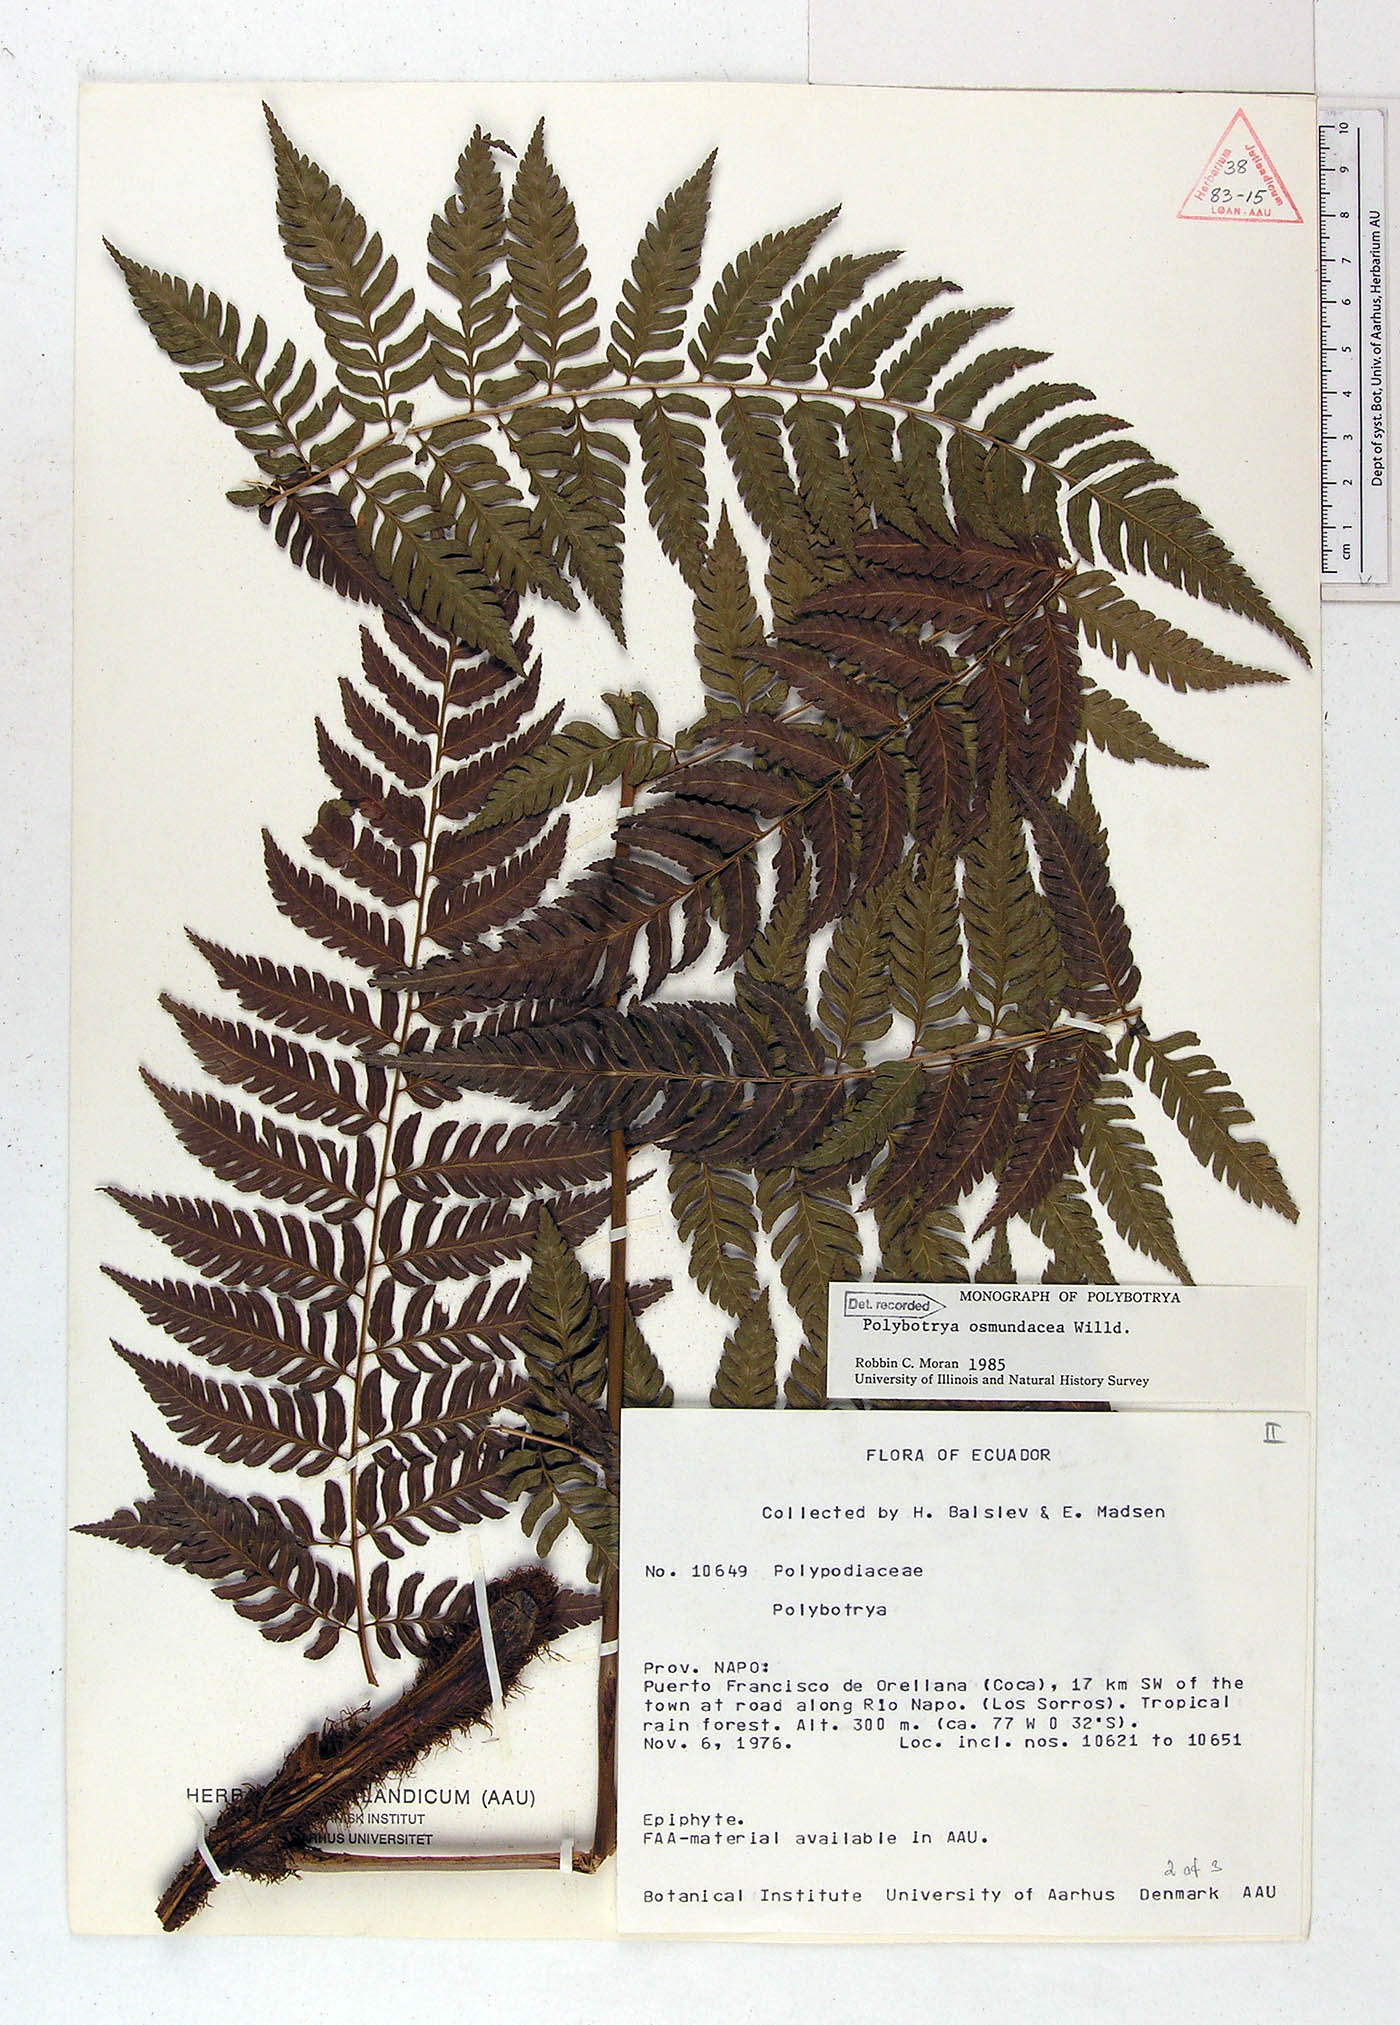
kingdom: Plantae
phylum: Tracheophyta
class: Polypodiopsida
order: Polypodiales
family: Dryopteridaceae
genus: Polybotrya
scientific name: Polybotrya osmundacea
